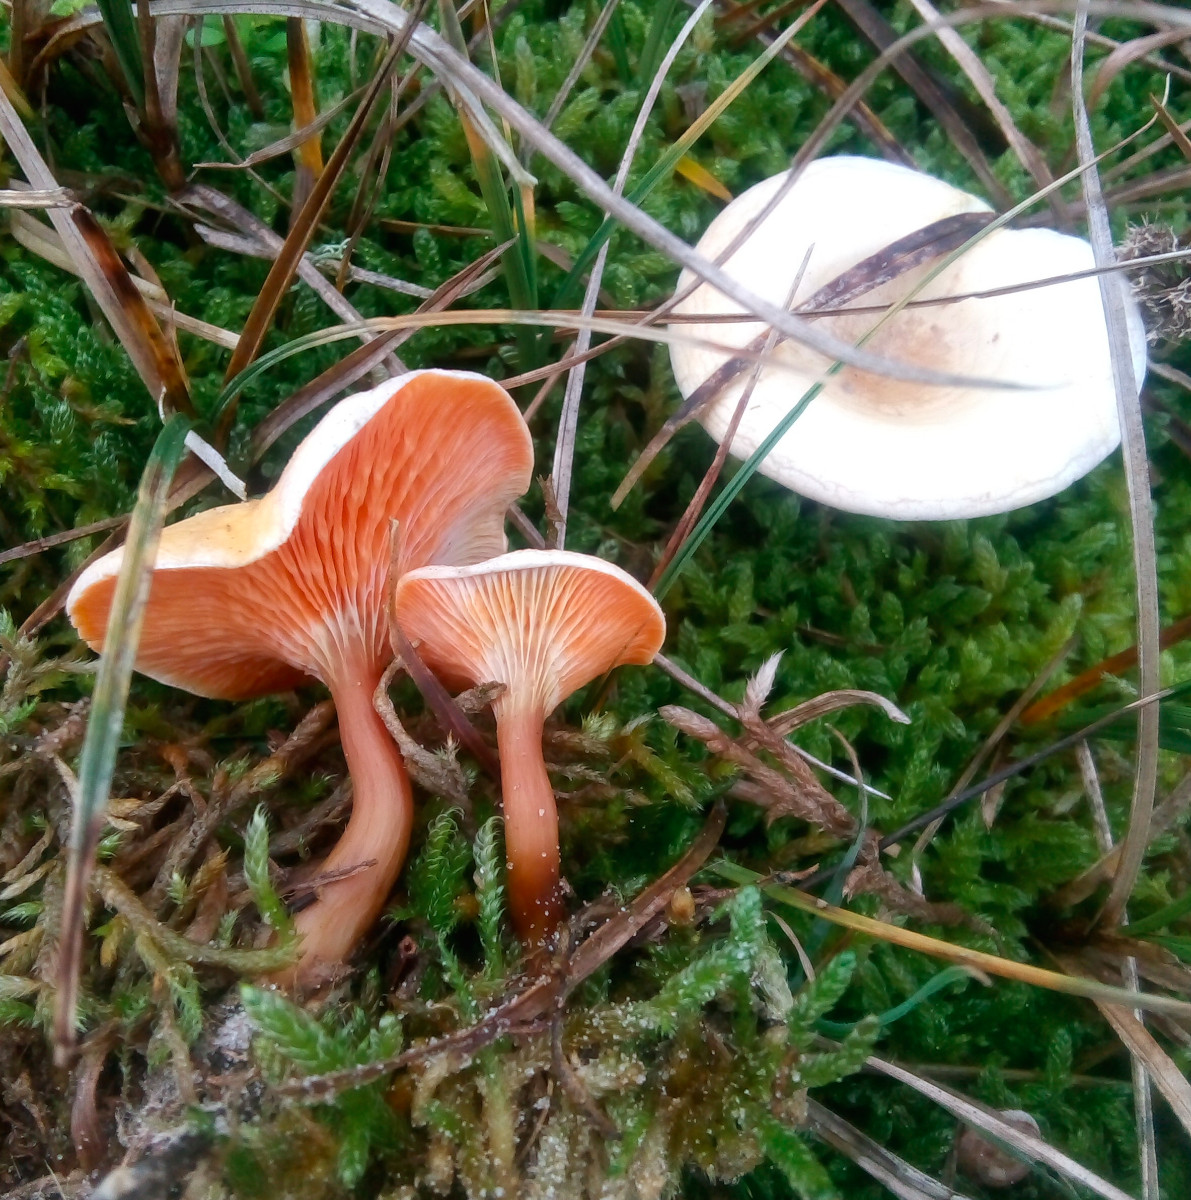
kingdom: Fungi
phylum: Basidiomycota
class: Agaricomycetes
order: Boletales
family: Hygrophoropsidaceae
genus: Hygrophoropsis
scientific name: Hygrophoropsis aurantiaca
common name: almindelig orangekantarel
